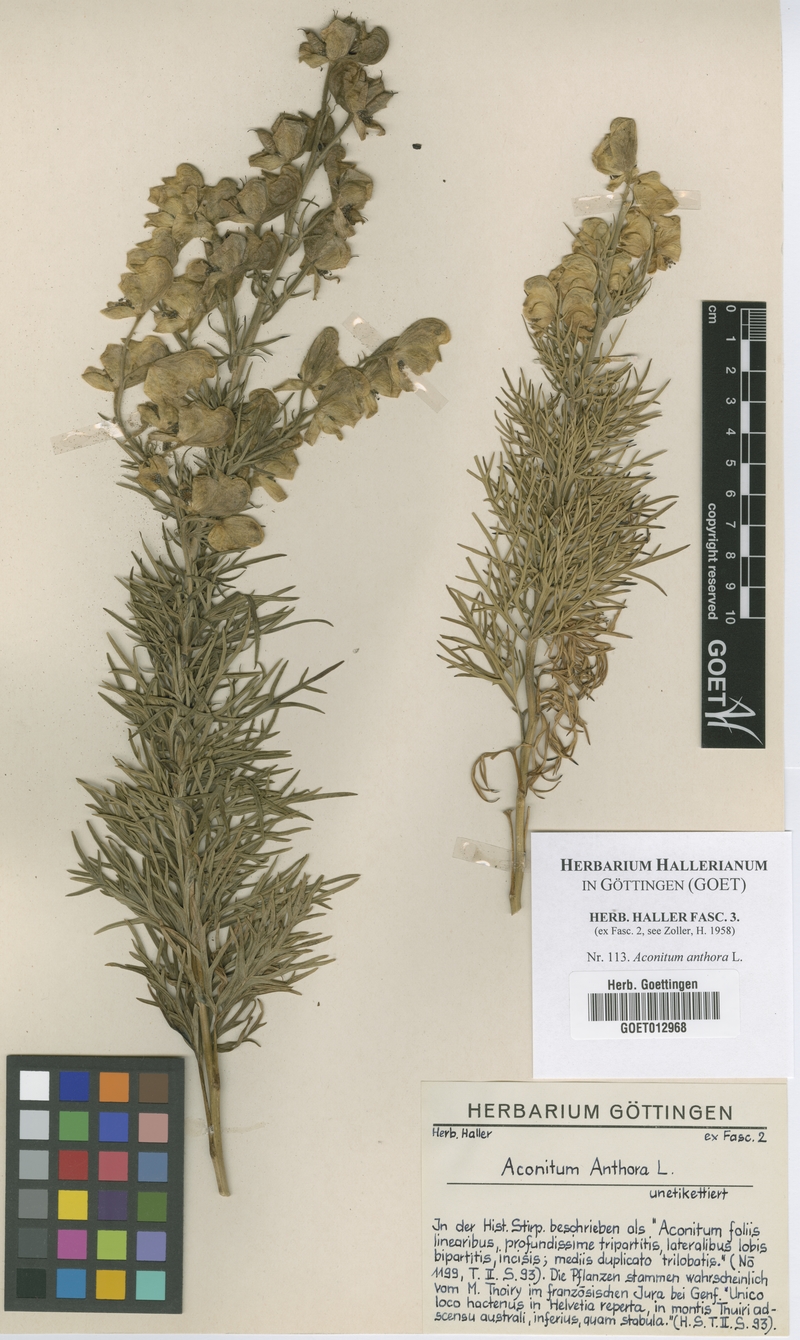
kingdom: Plantae
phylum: Tracheophyta
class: Magnoliopsida
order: Ranunculales
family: Ranunculaceae
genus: Aconitum
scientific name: Aconitum anthora
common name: Yellow monkshood
